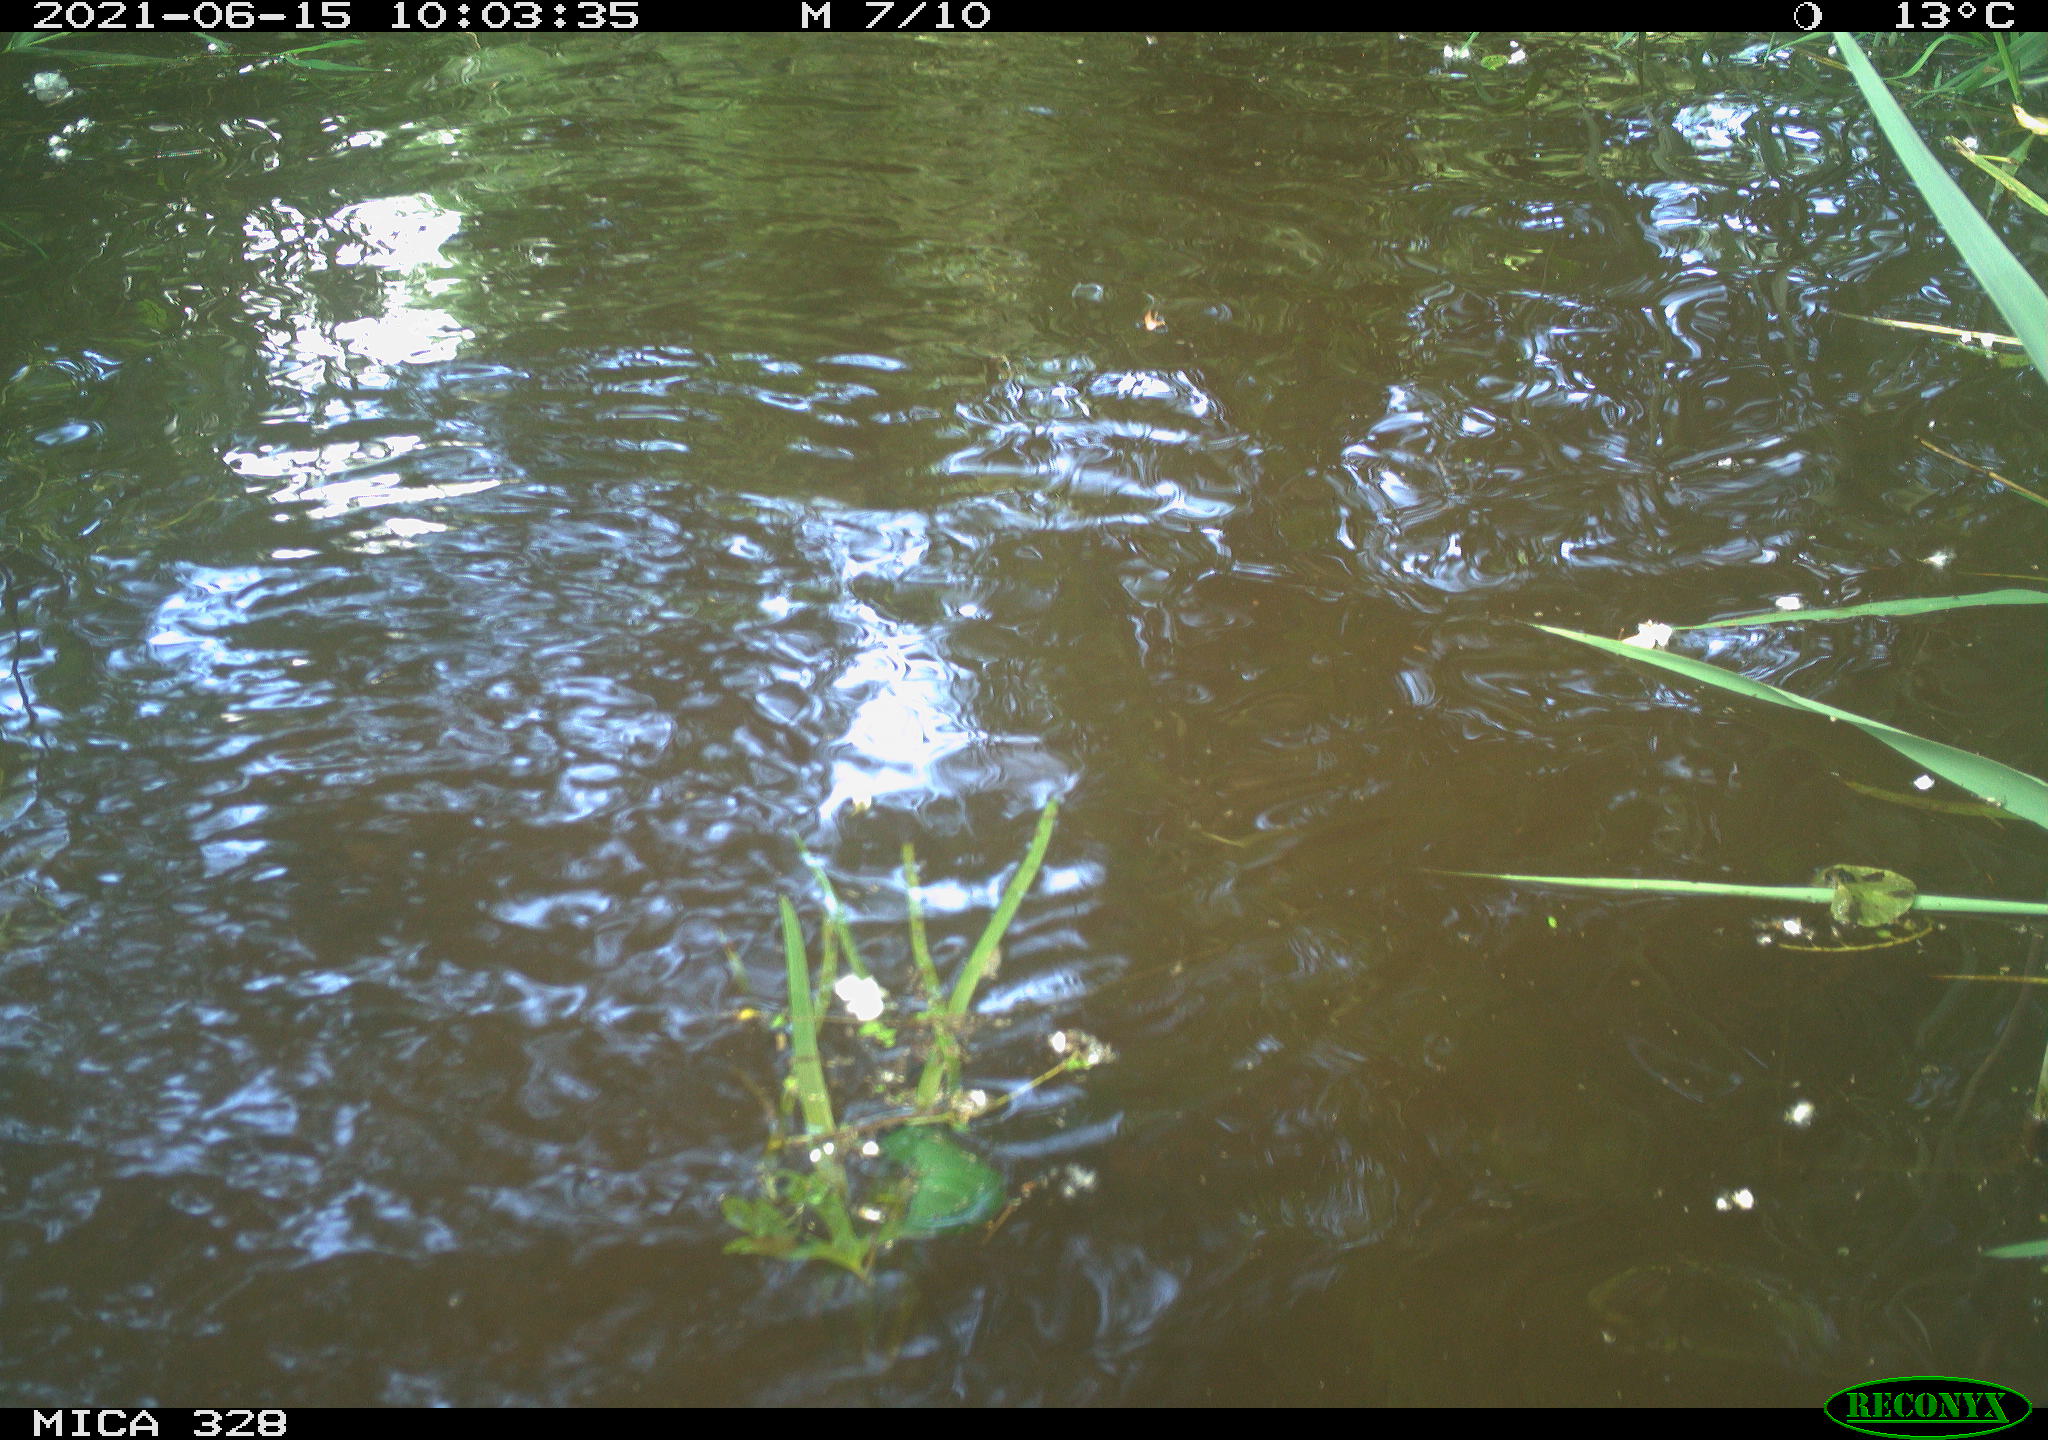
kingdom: Animalia
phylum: Chordata
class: Aves
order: Anseriformes
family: Anatidae
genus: Aix
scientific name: Aix galericulata
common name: Mandarin duck
